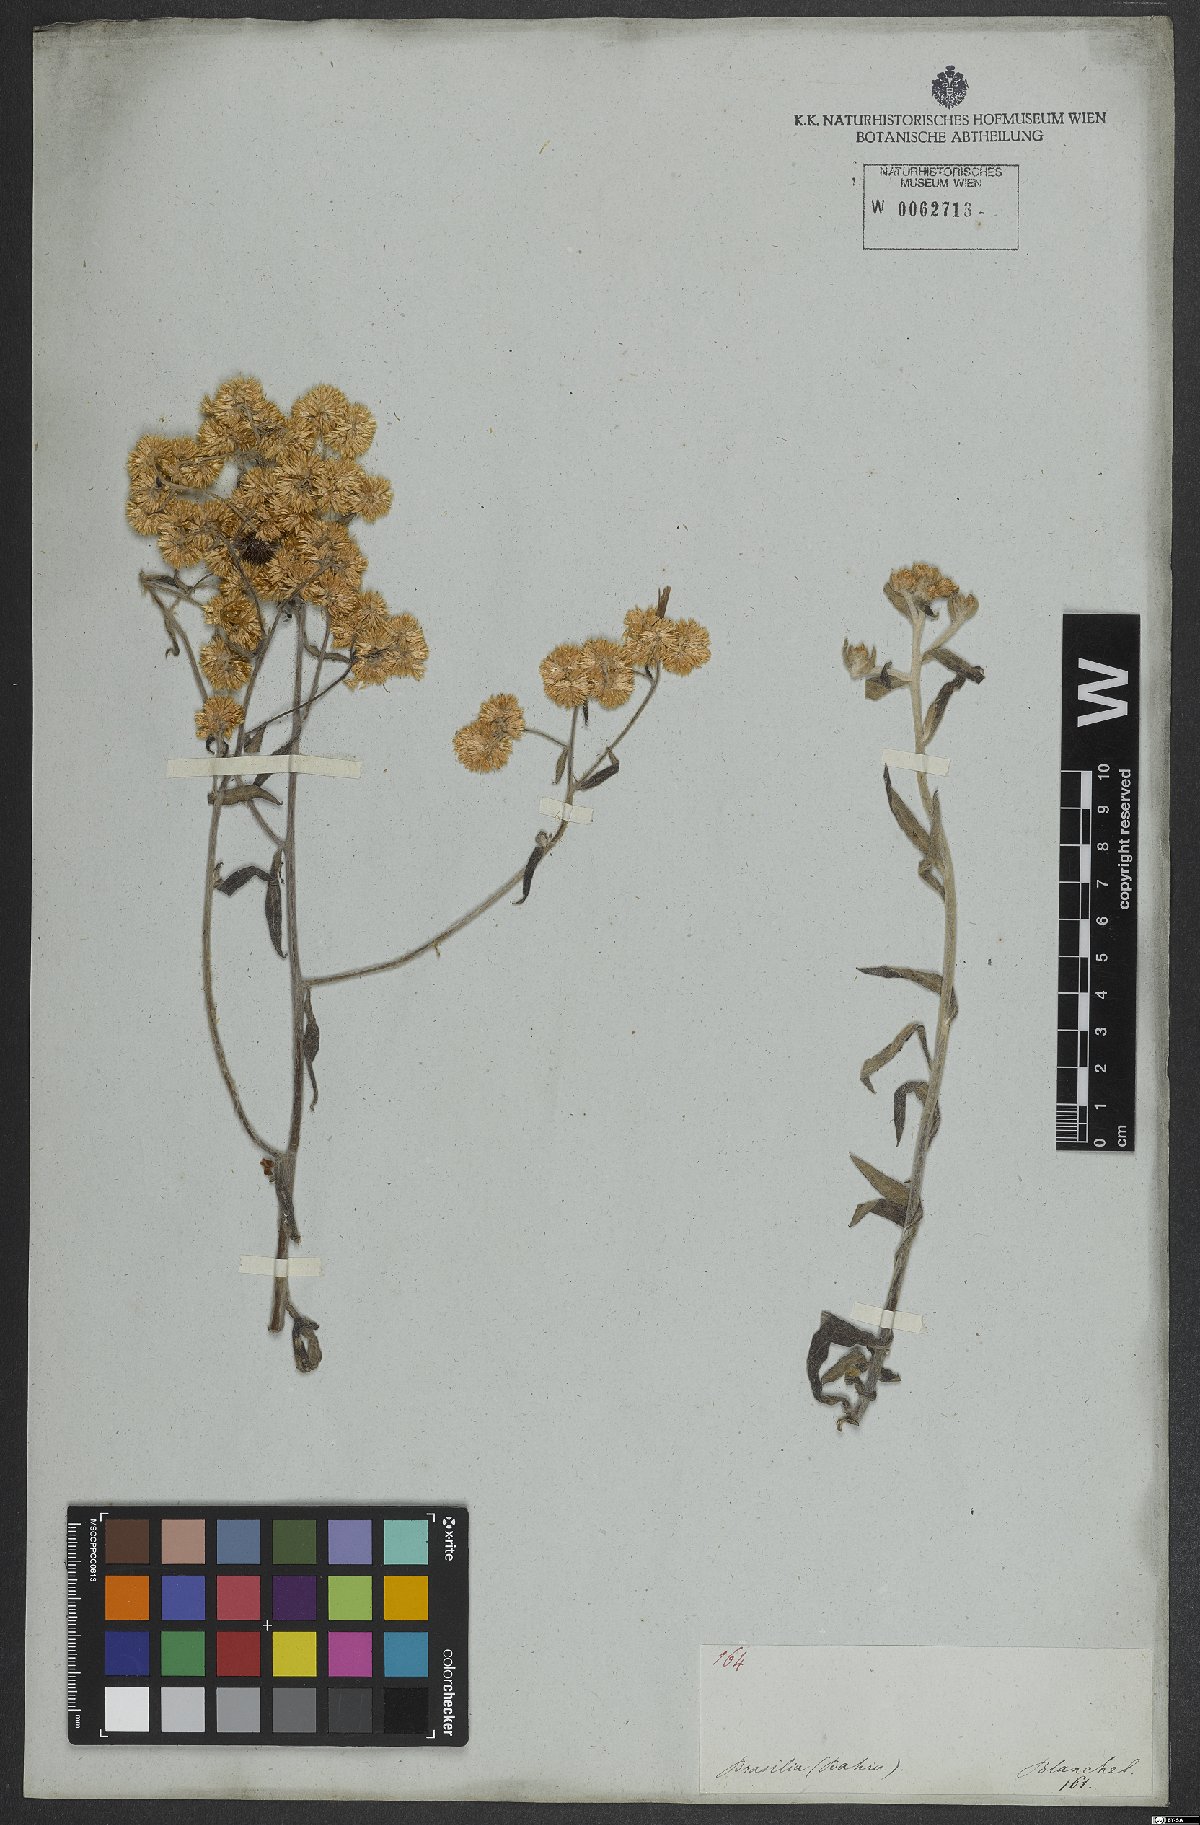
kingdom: Plantae
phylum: Tracheophyta
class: Magnoliopsida
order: Asterales
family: Asteraceae
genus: Achyrocline
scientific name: Achyrocline flaccida
